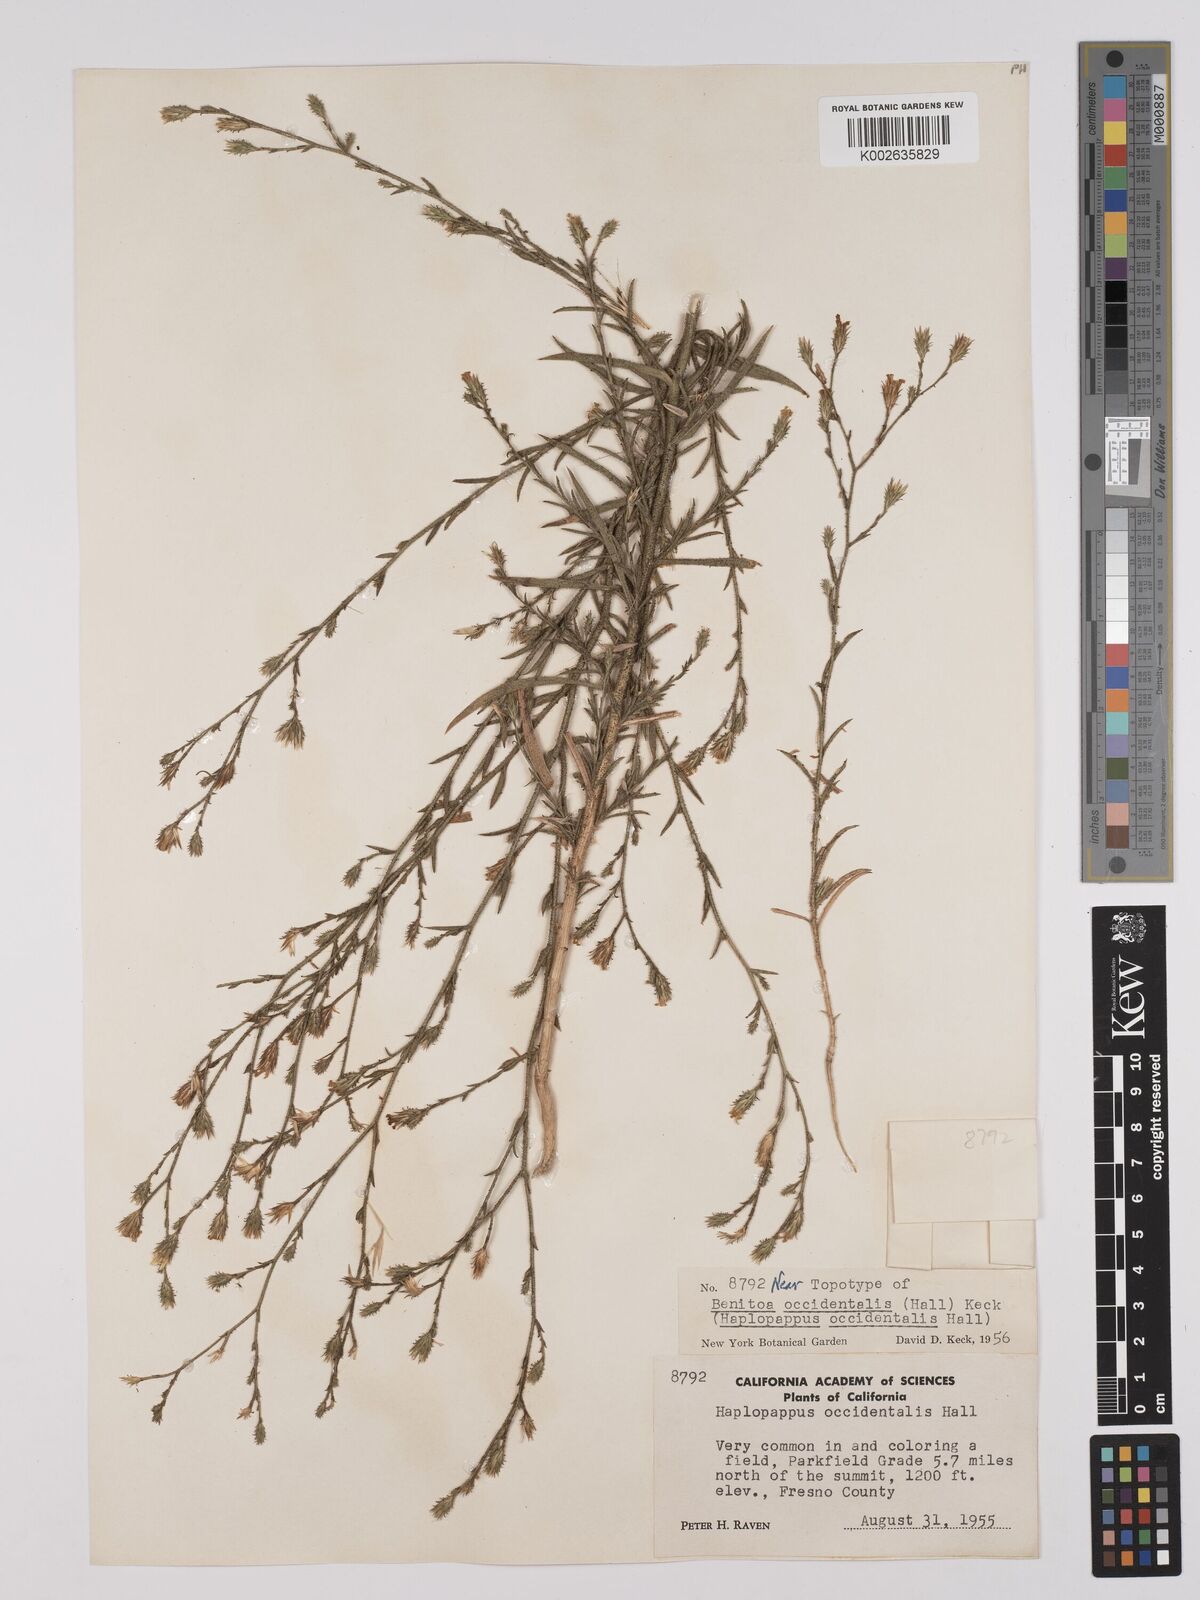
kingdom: Plantae
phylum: Tracheophyta
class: Magnoliopsida
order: Asterales
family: Asteraceae
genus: Benitoa
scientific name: Benitoa occidentalis
